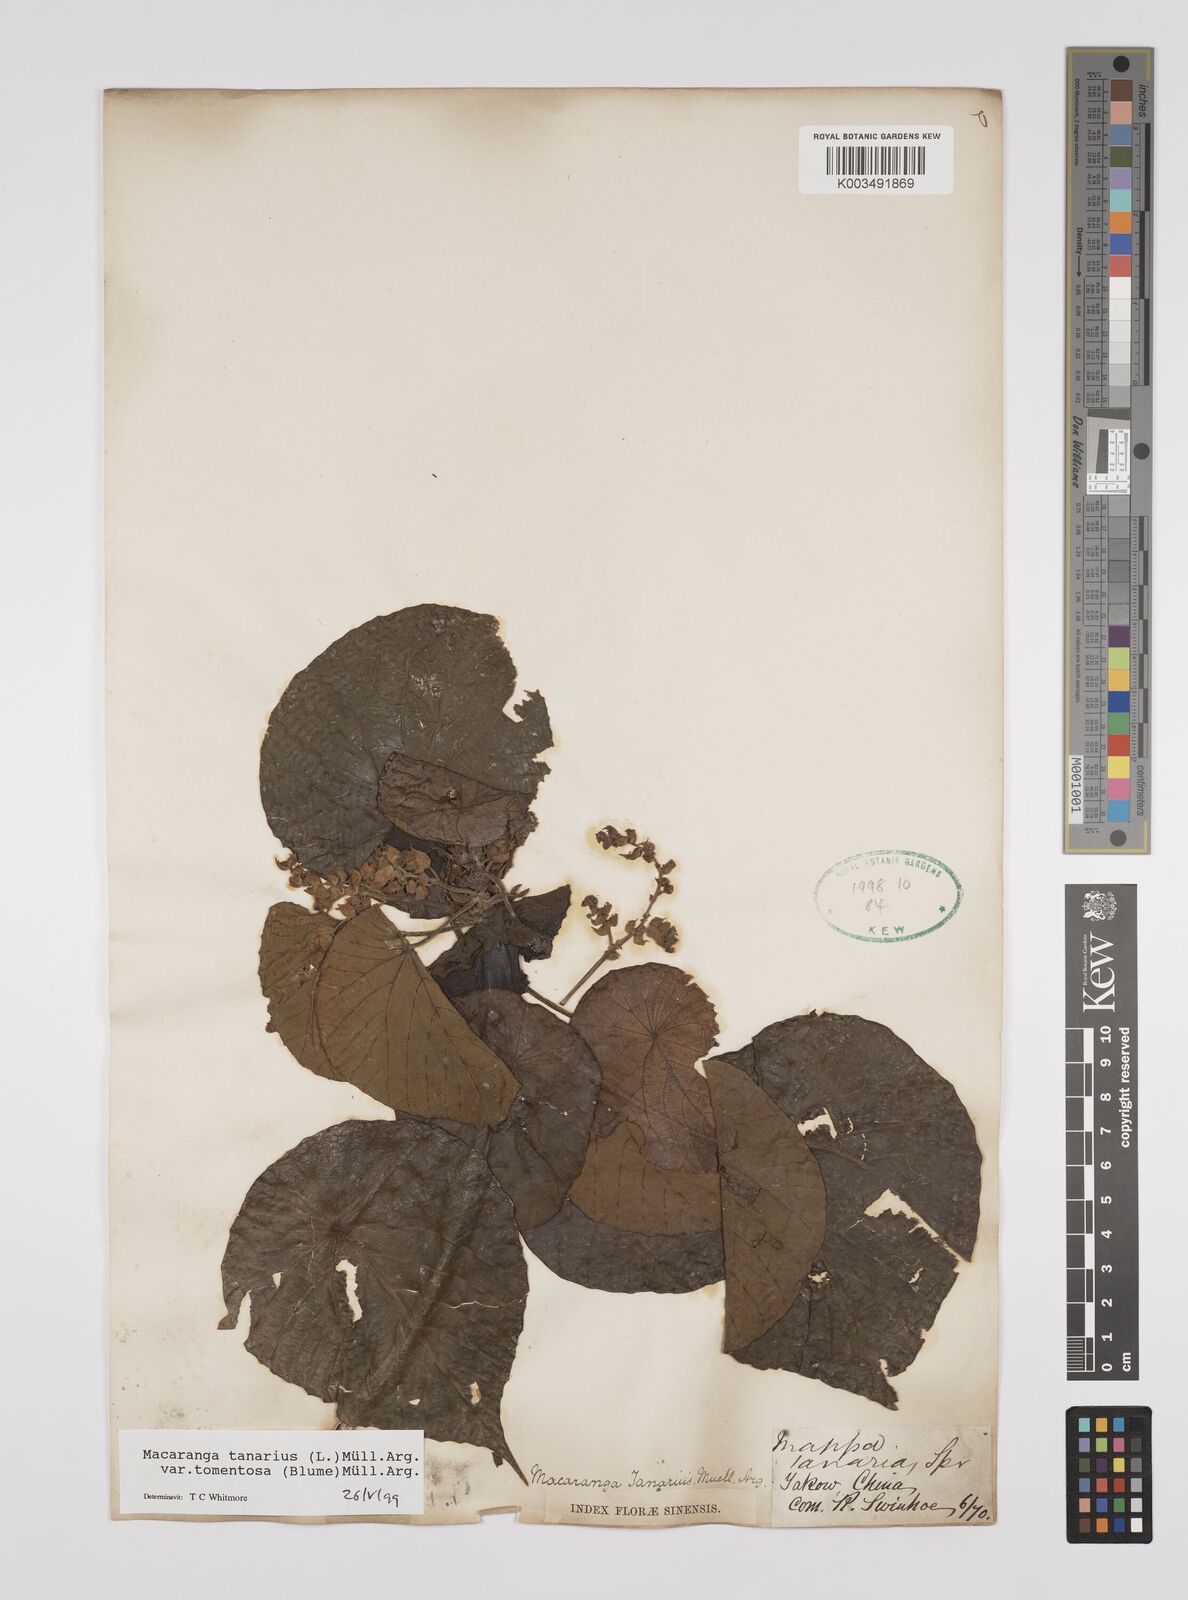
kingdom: Plantae
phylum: Tracheophyta
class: Magnoliopsida
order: Malpighiales
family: Euphorbiaceae
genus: Macaranga
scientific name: Macaranga tanarius
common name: Parasol leaf tree
